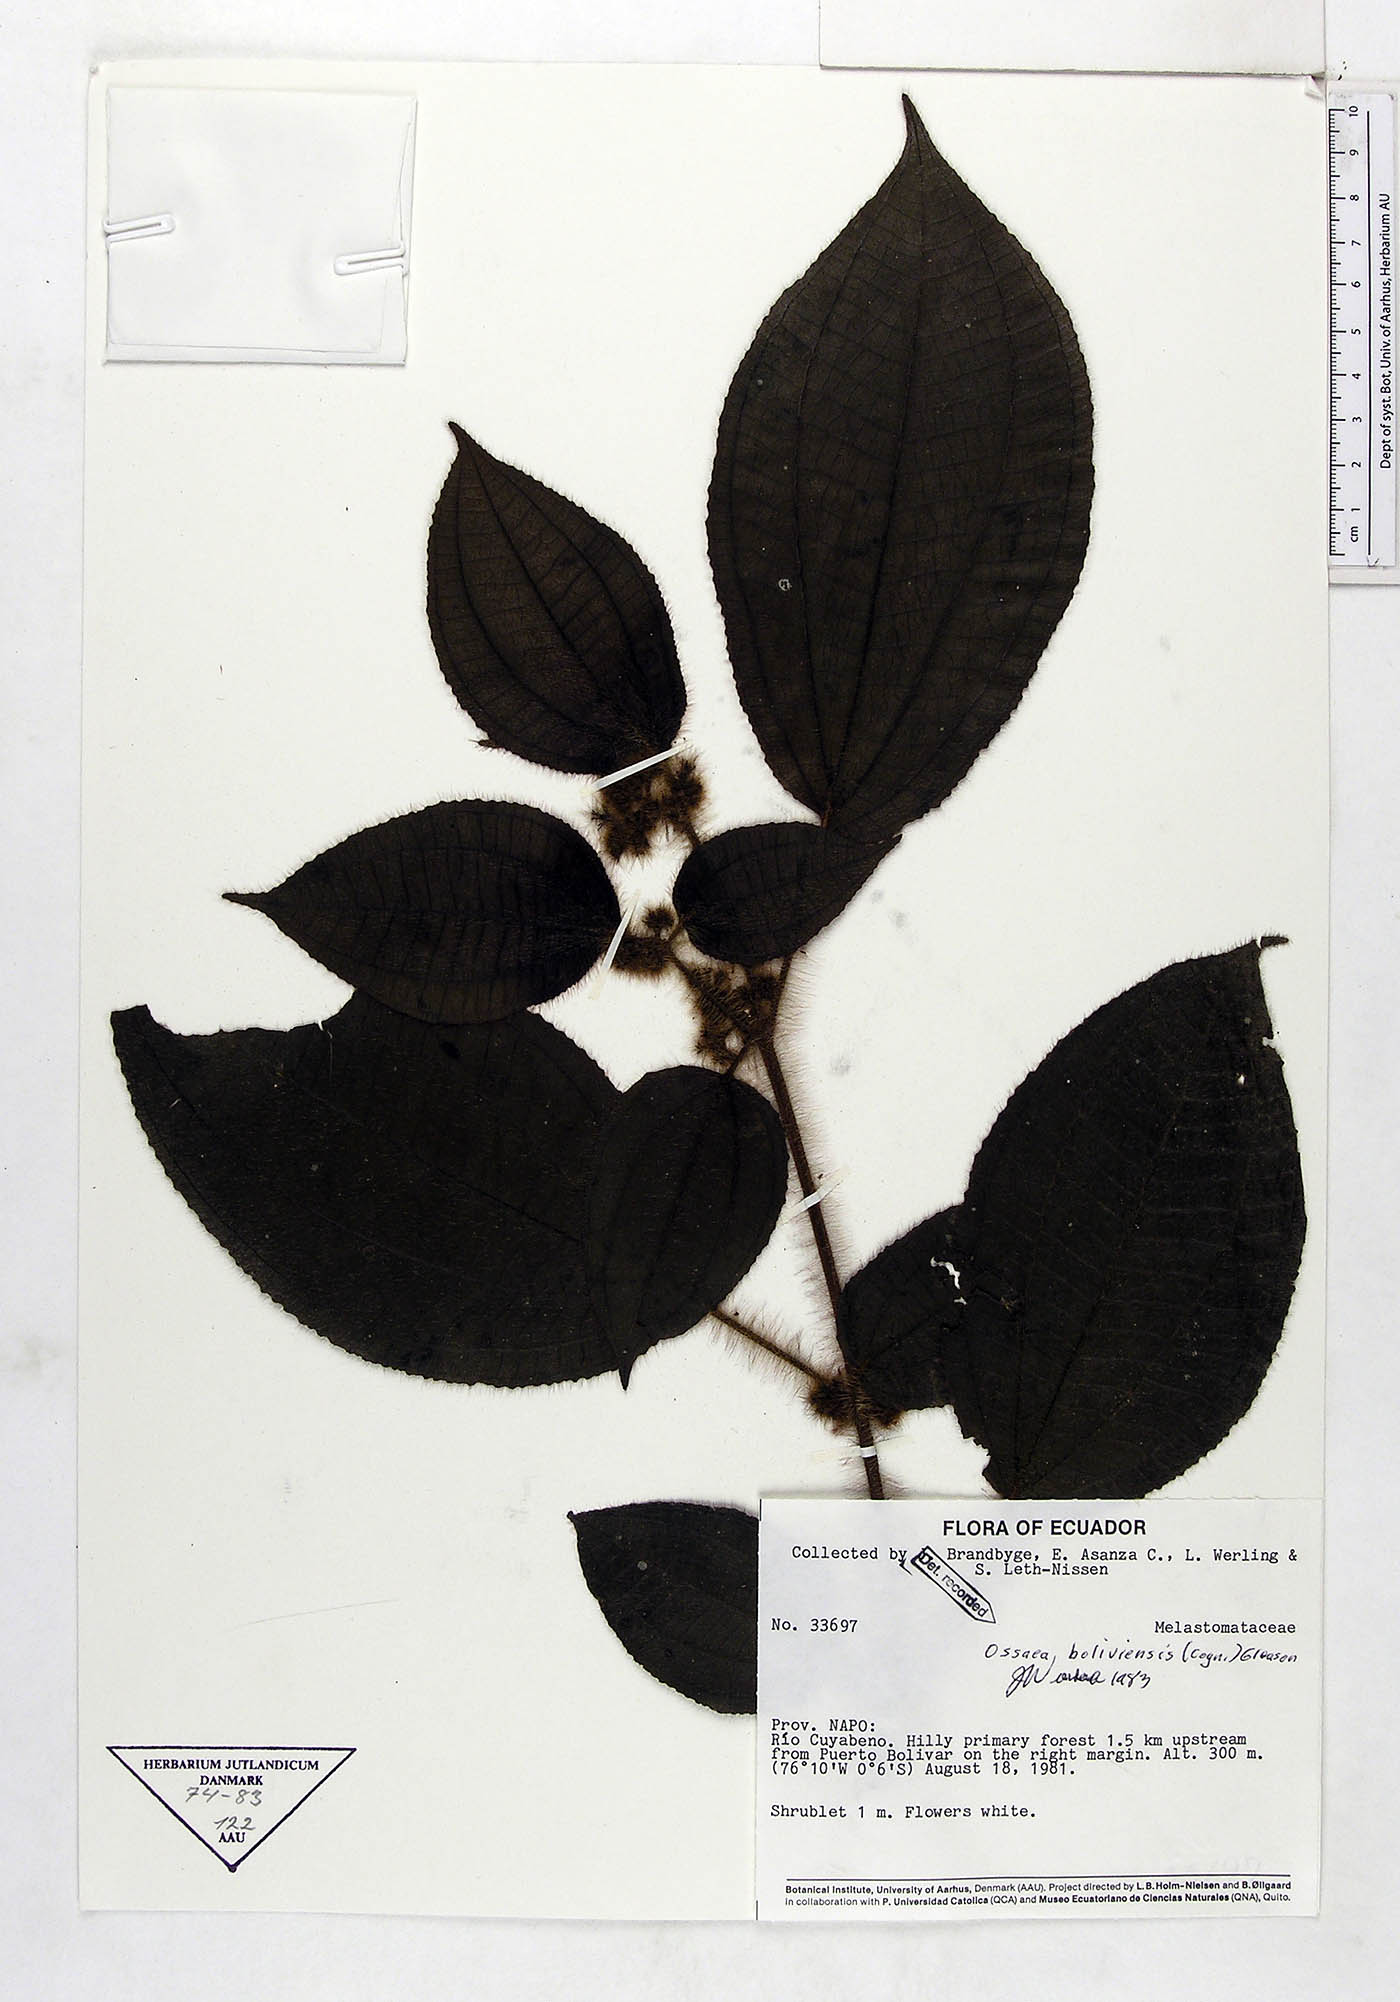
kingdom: Plantae
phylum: Tracheophyta
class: Magnoliopsida
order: Myrtales
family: Melastomataceae
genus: Miconia
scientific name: Miconia violascens
